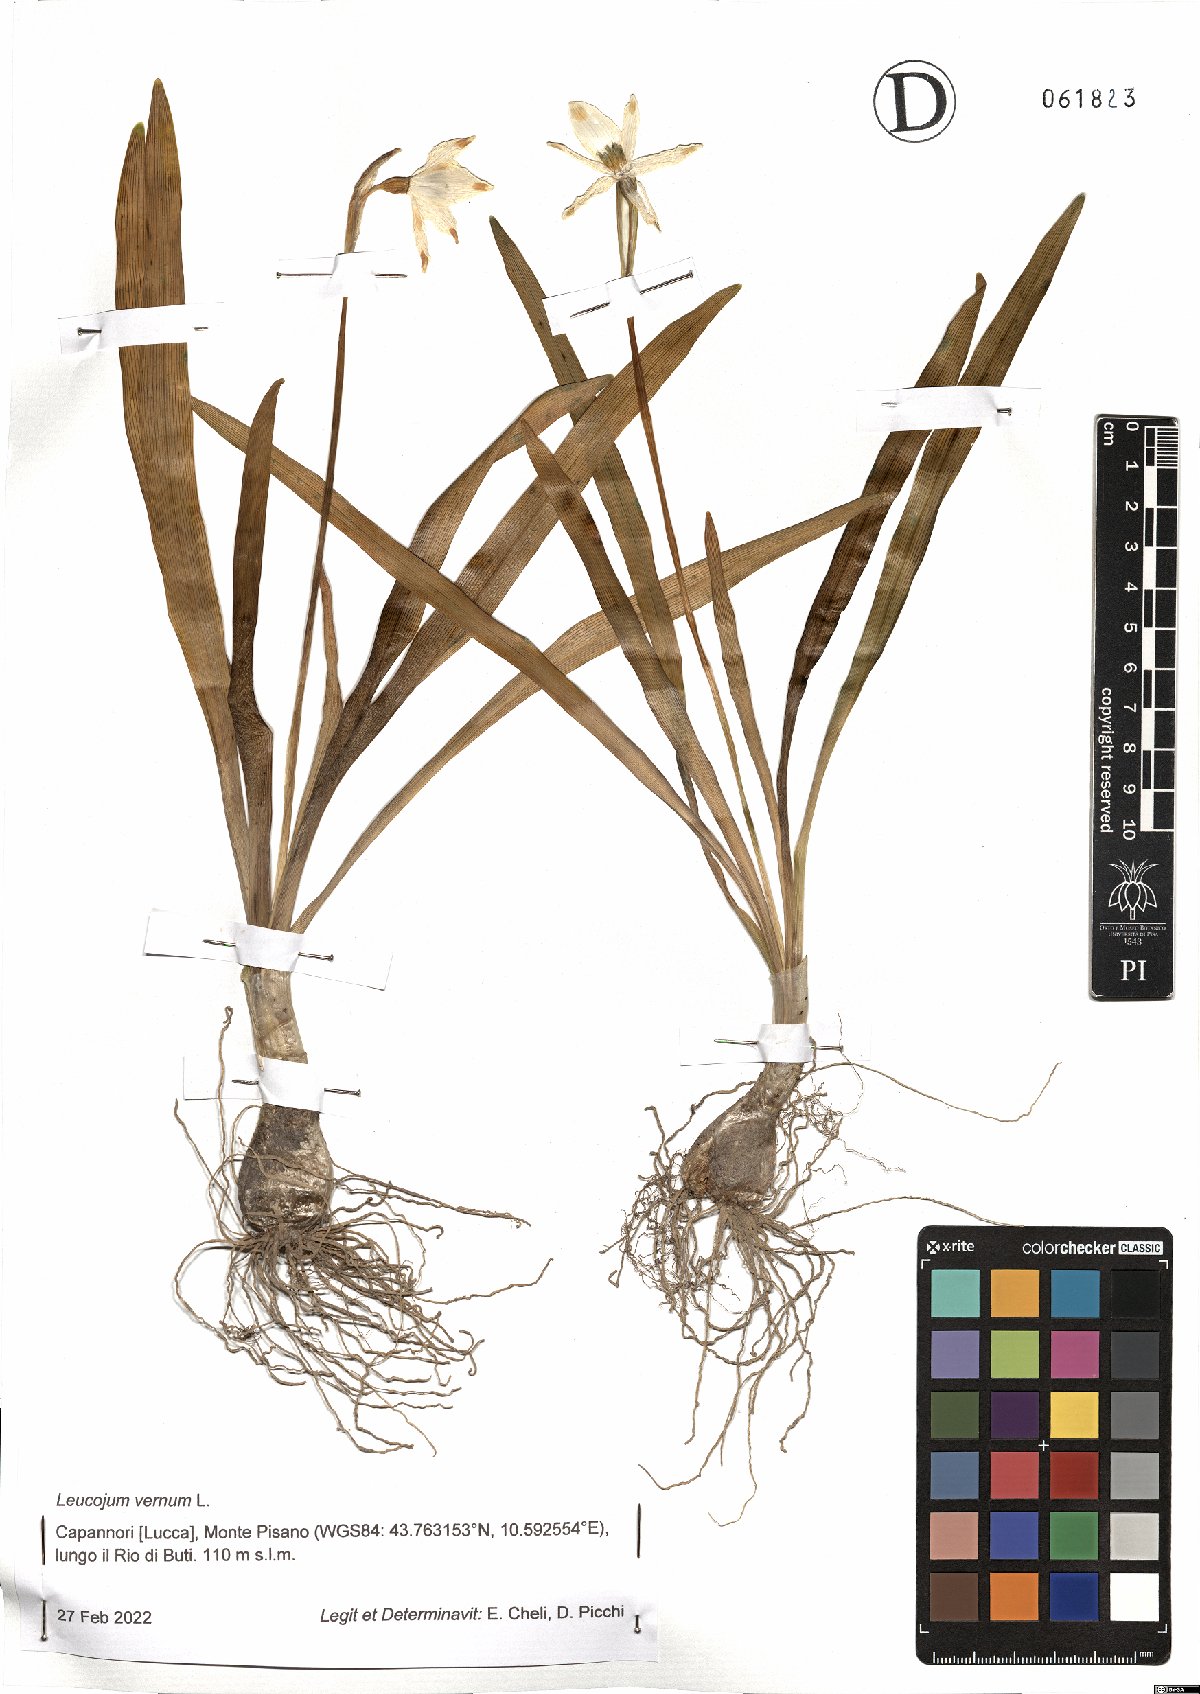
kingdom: Plantae
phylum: Tracheophyta
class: Liliopsida
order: Asparagales
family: Amaryllidaceae
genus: Leucojum
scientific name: Leucojum vernum
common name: Spring snowflake
